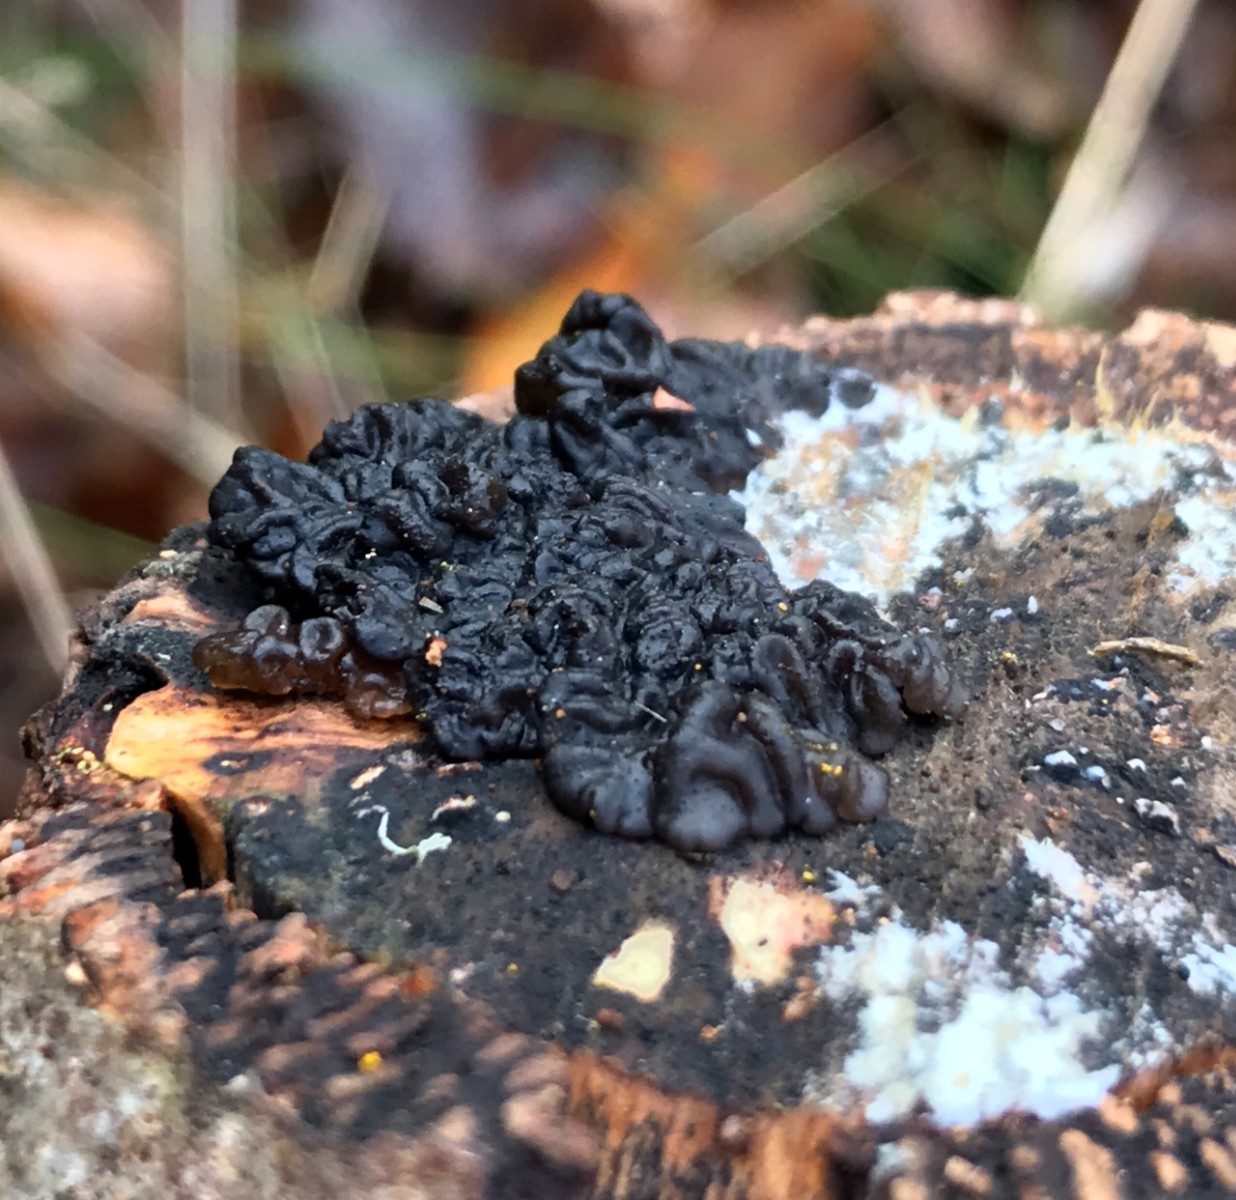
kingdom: Fungi
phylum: Basidiomycota
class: Agaricomycetes
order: Auriculariales
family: Auriculariaceae
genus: Exidia
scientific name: Exidia nigricans
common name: almindelig bævretop
